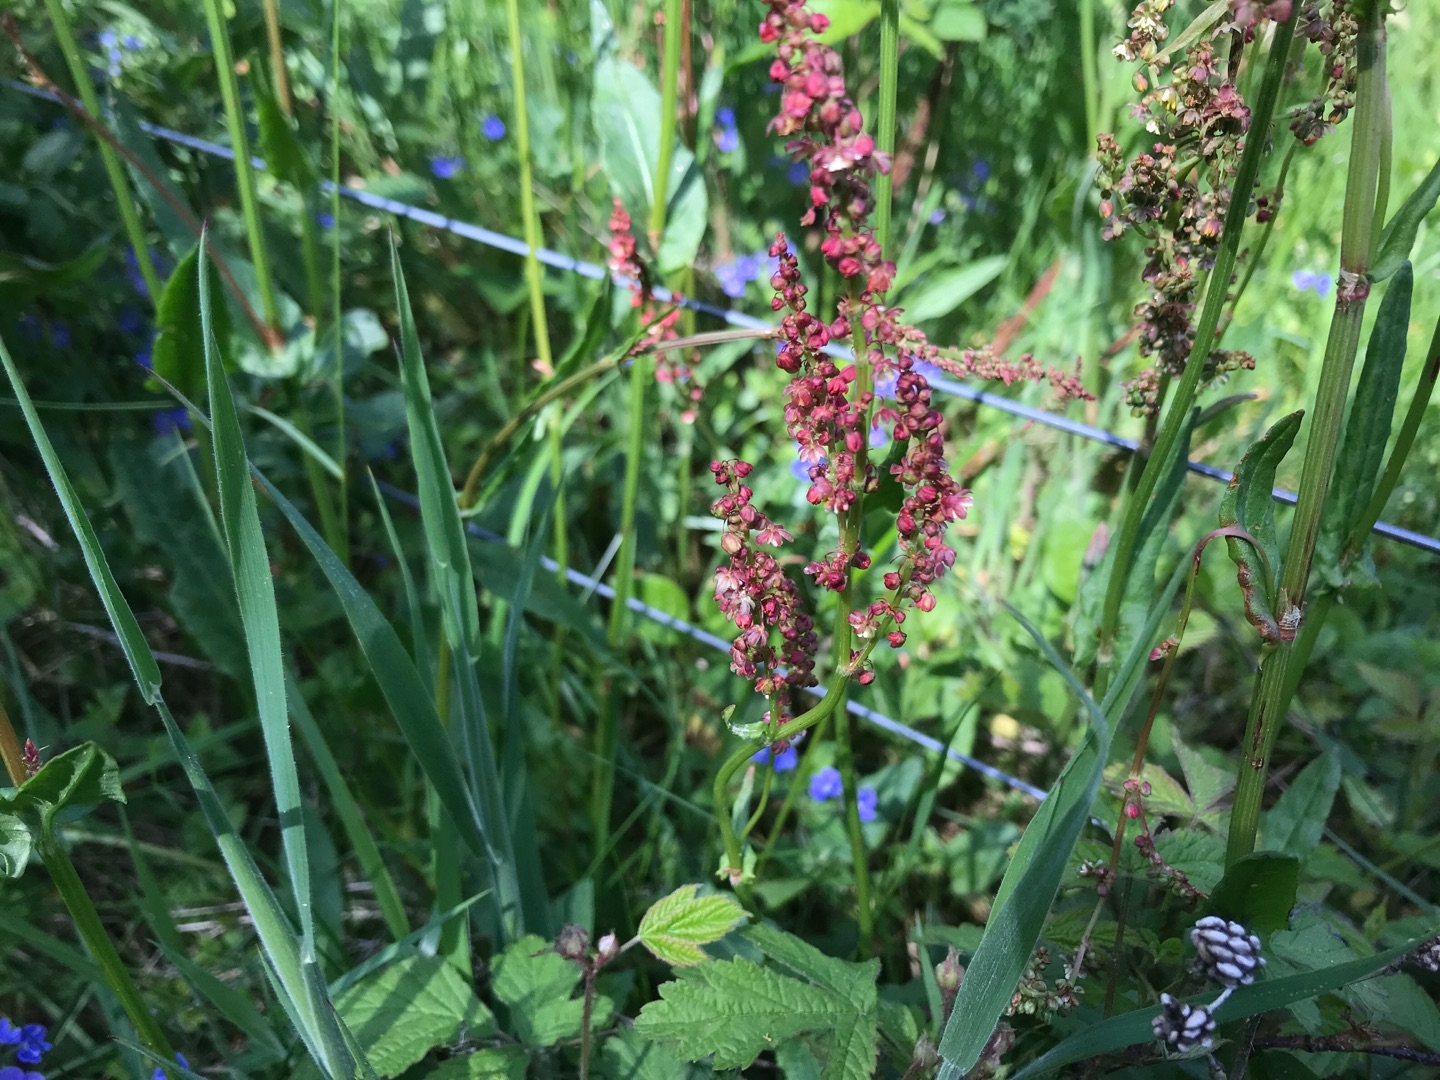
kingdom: Plantae
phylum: Tracheophyta
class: Magnoliopsida
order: Caryophyllales
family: Polygonaceae
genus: Rumex
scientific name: Rumex acetosa
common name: Almindelig syre
